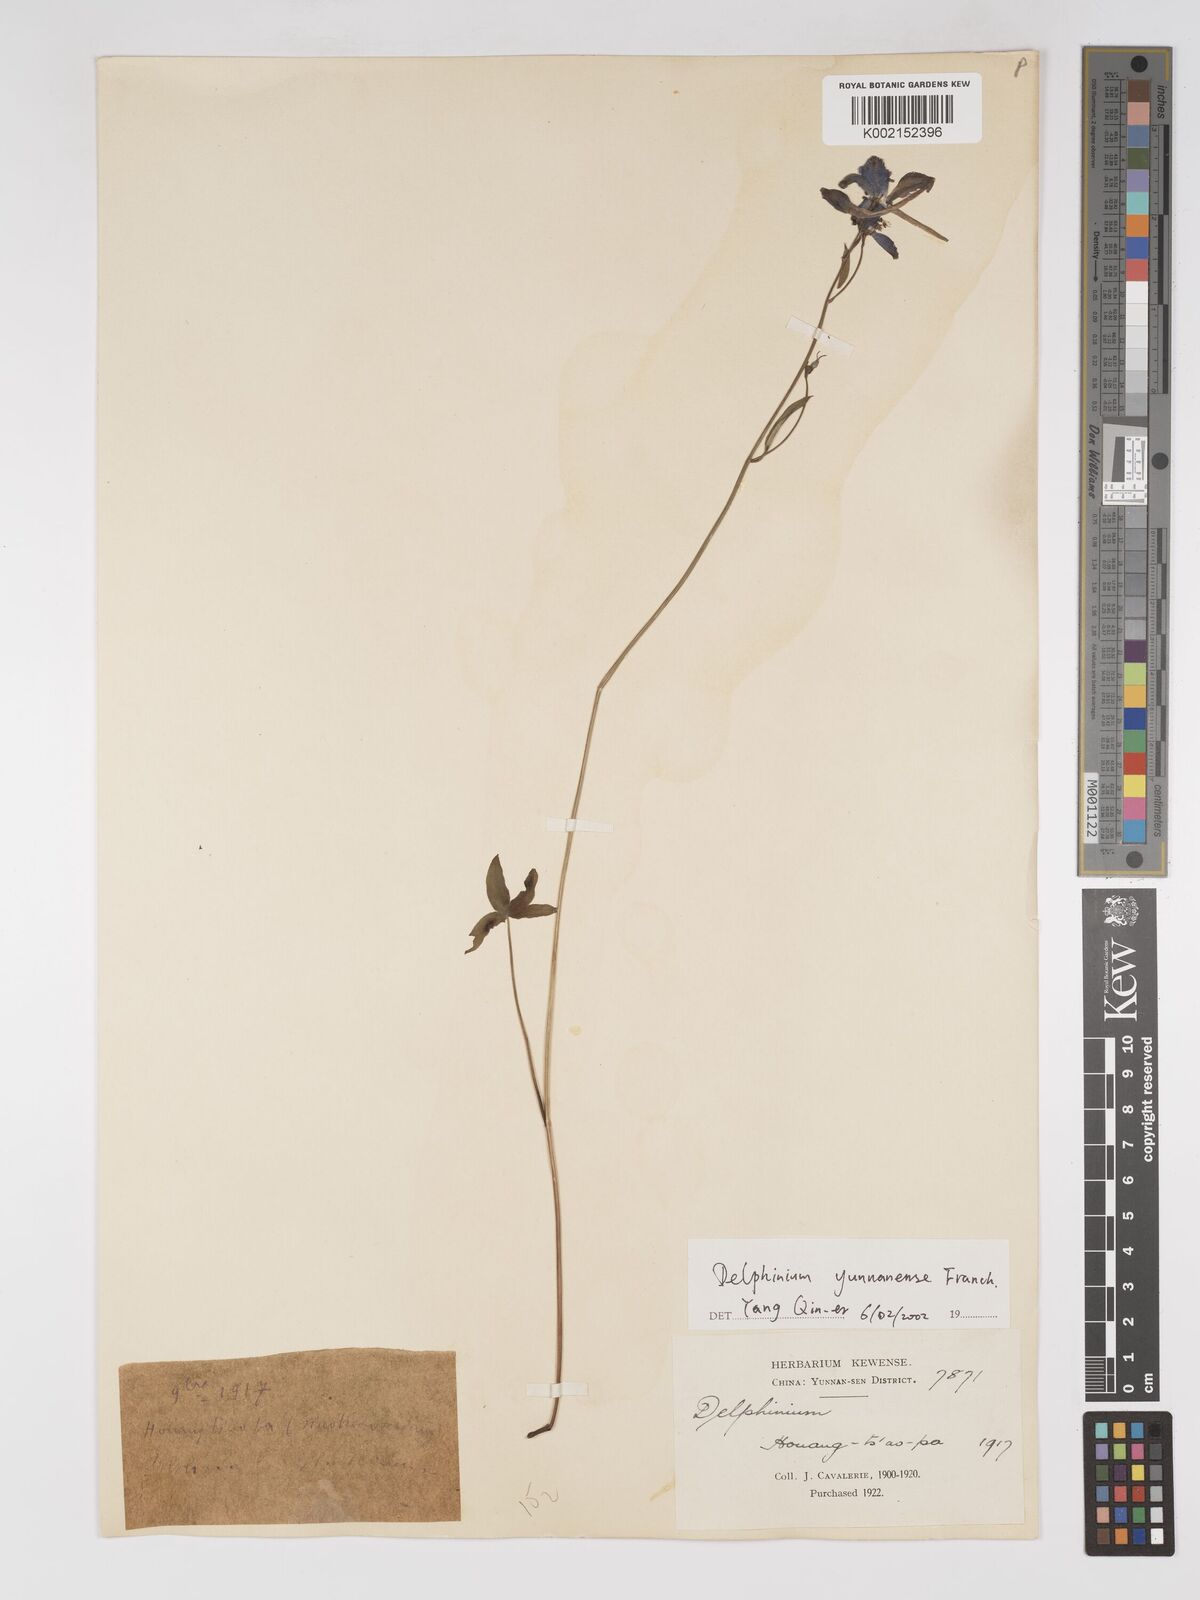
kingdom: Plantae
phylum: Tracheophyta
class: Magnoliopsida
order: Ranunculales
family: Ranunculaceae
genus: Delphinium
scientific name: Delphinium yunnanense
